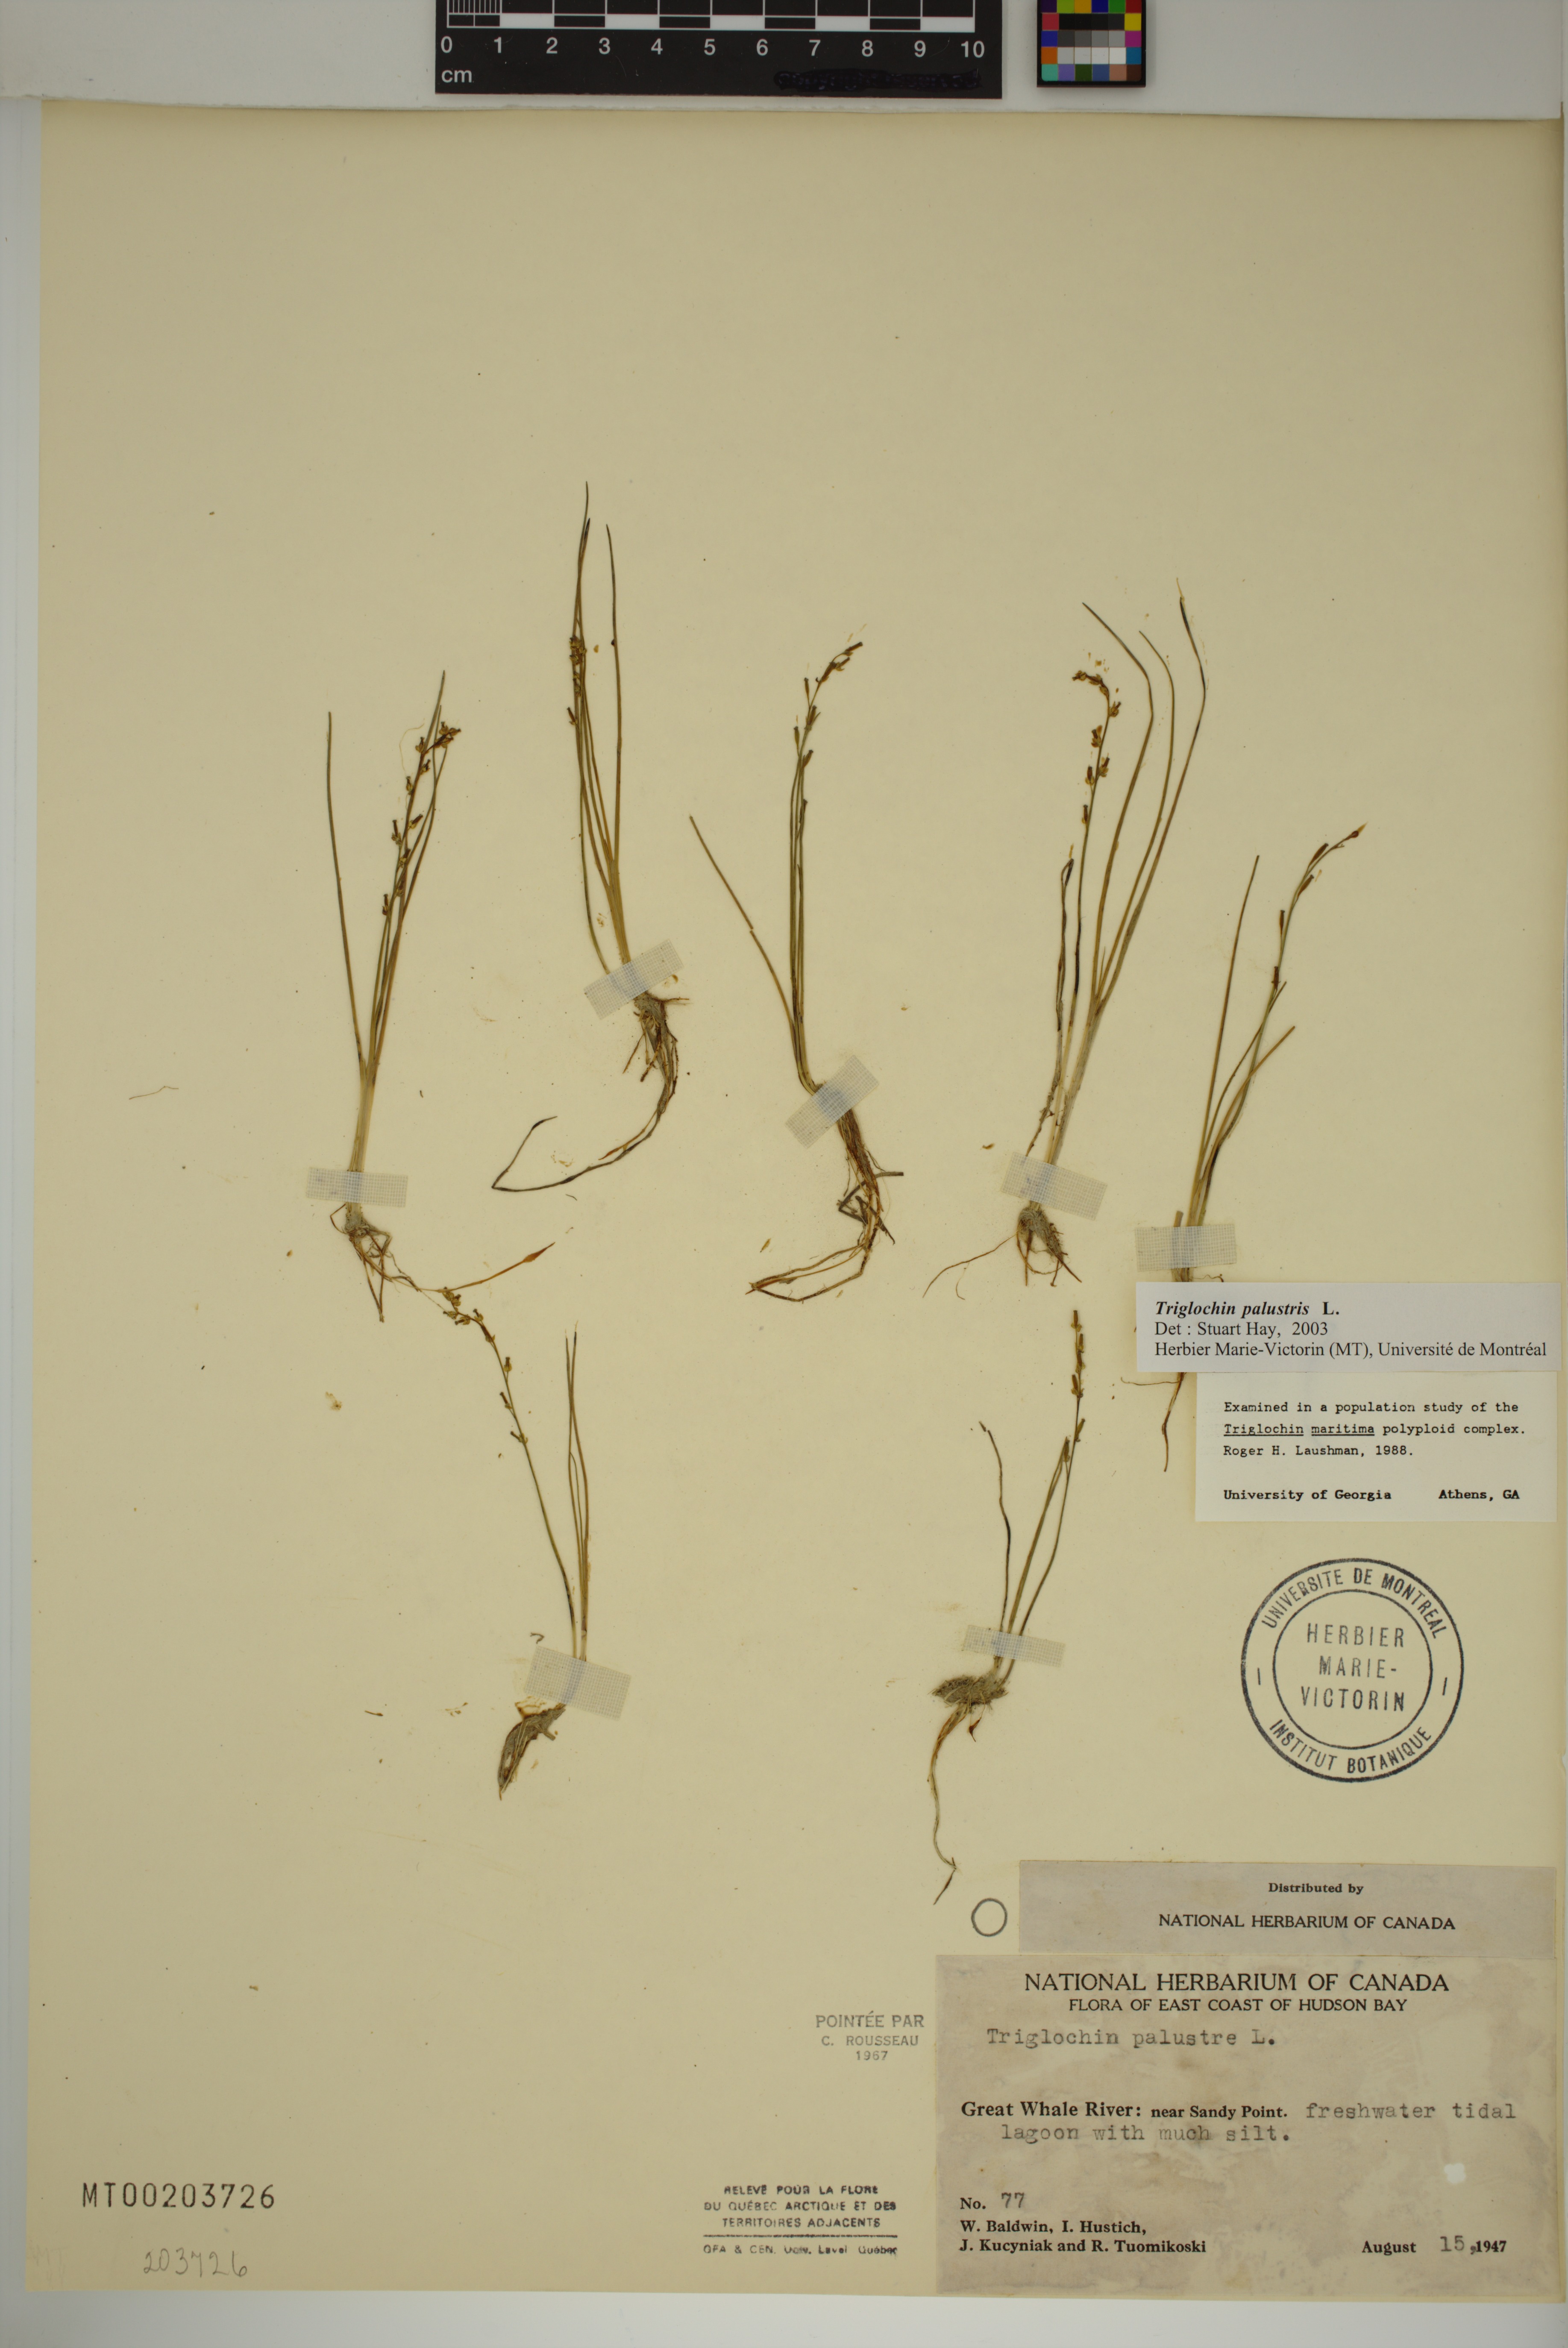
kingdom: Plantae
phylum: Tracheophyta
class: Liliopsida
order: Alismatales
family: Juncaginaceae
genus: Triglochin
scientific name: Triglochin palustris
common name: Marsh arrowgrass
